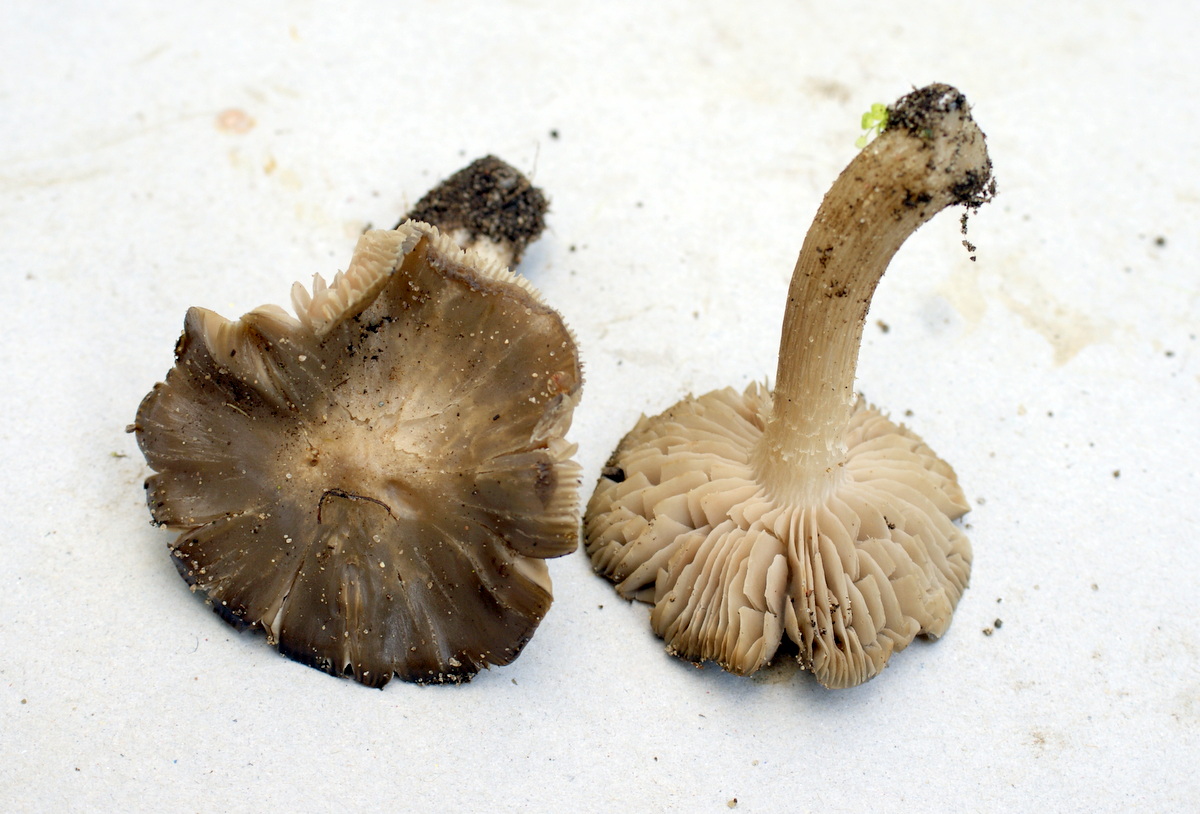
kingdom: Fungi
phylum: Basidiomycota
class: Agaricomycetes
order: Agaricales
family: Entolomataceae
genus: Entoloma
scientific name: Entoloma clypeatum
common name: flammet rødblad
